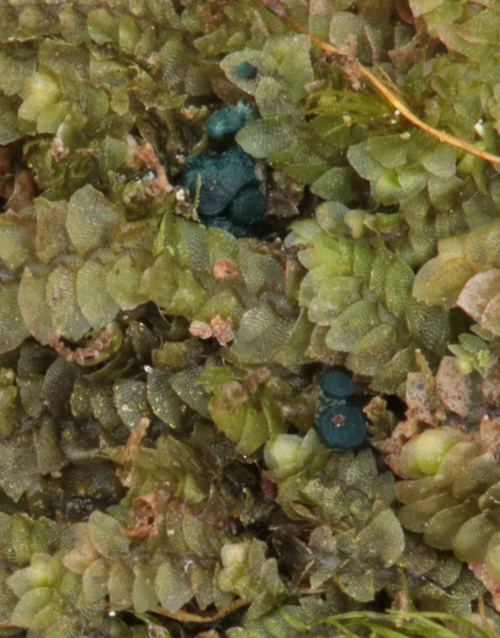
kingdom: Fungi
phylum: Ascomycota
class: Leotiomycetes
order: Leotiales
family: Mniaeciaceae
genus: Mniaecia
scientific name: Mniaecia jungermanniae
